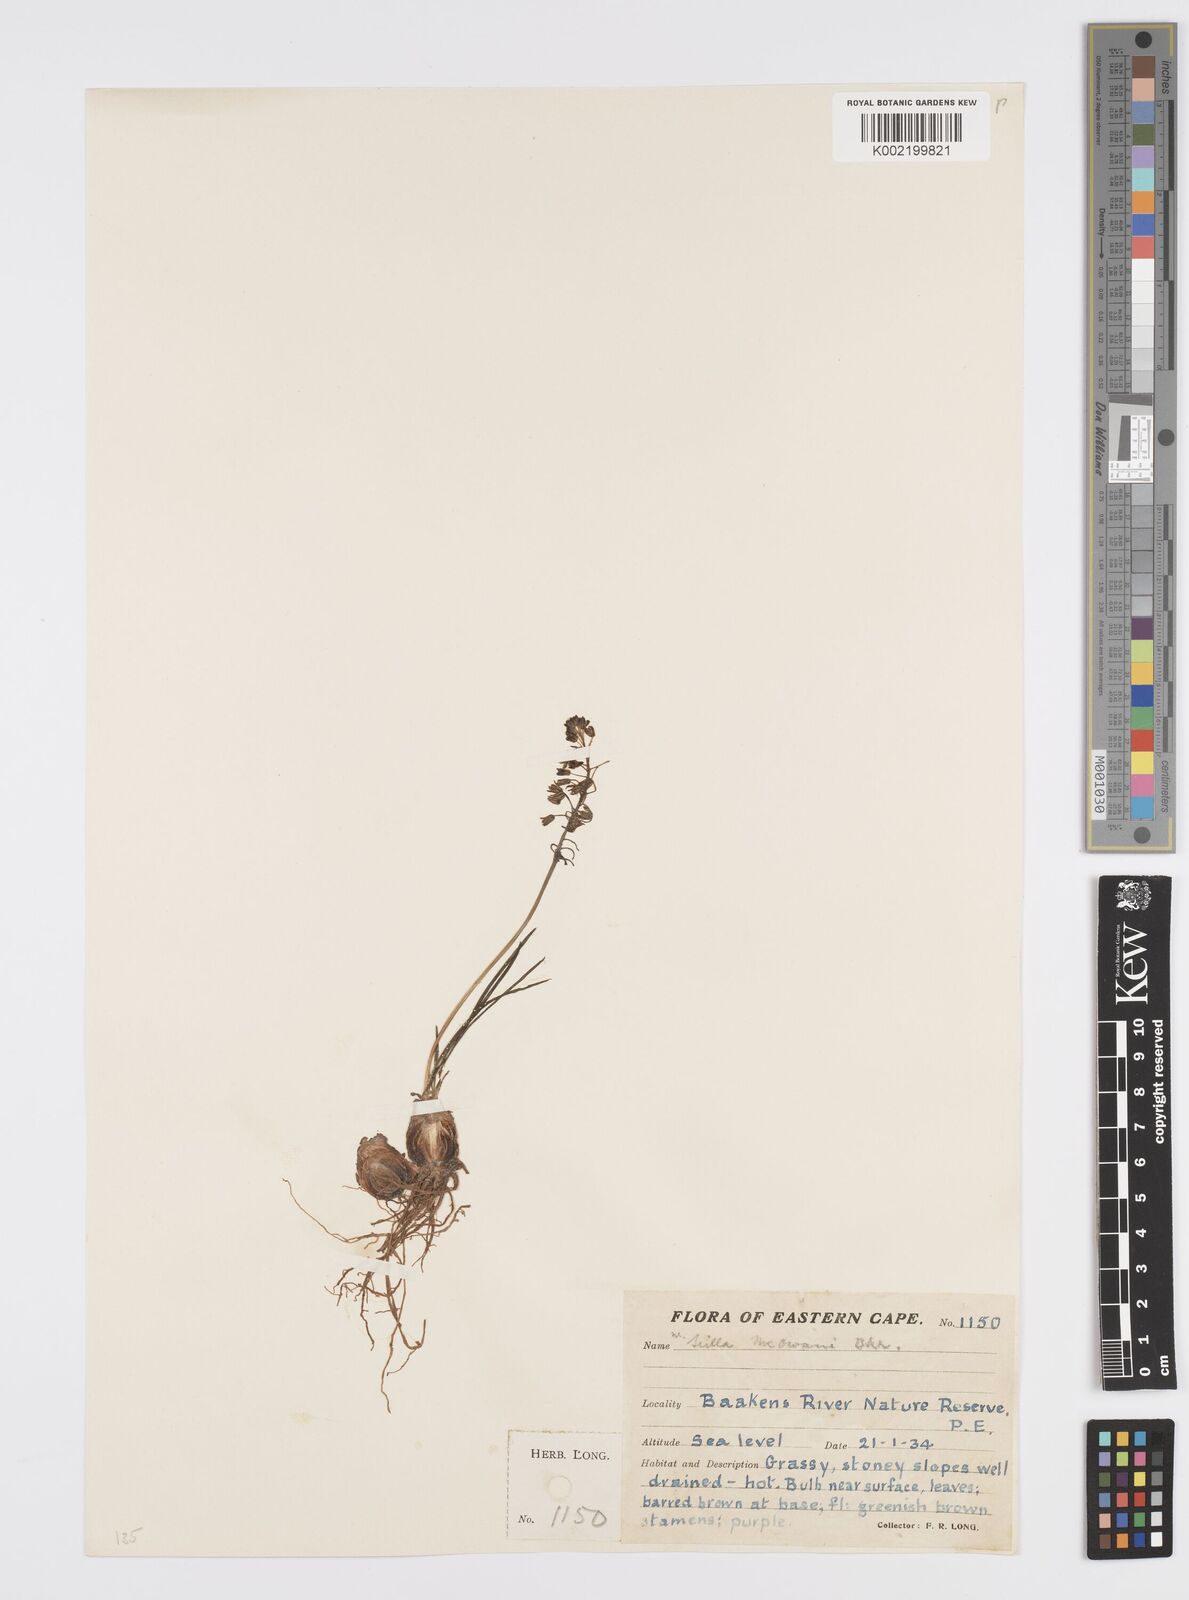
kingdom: Plantae
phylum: Tracheophyta
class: Liliopsida
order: Asparagales
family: Asparagaceae
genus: Ledebouria
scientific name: Ledebouria cooperi
